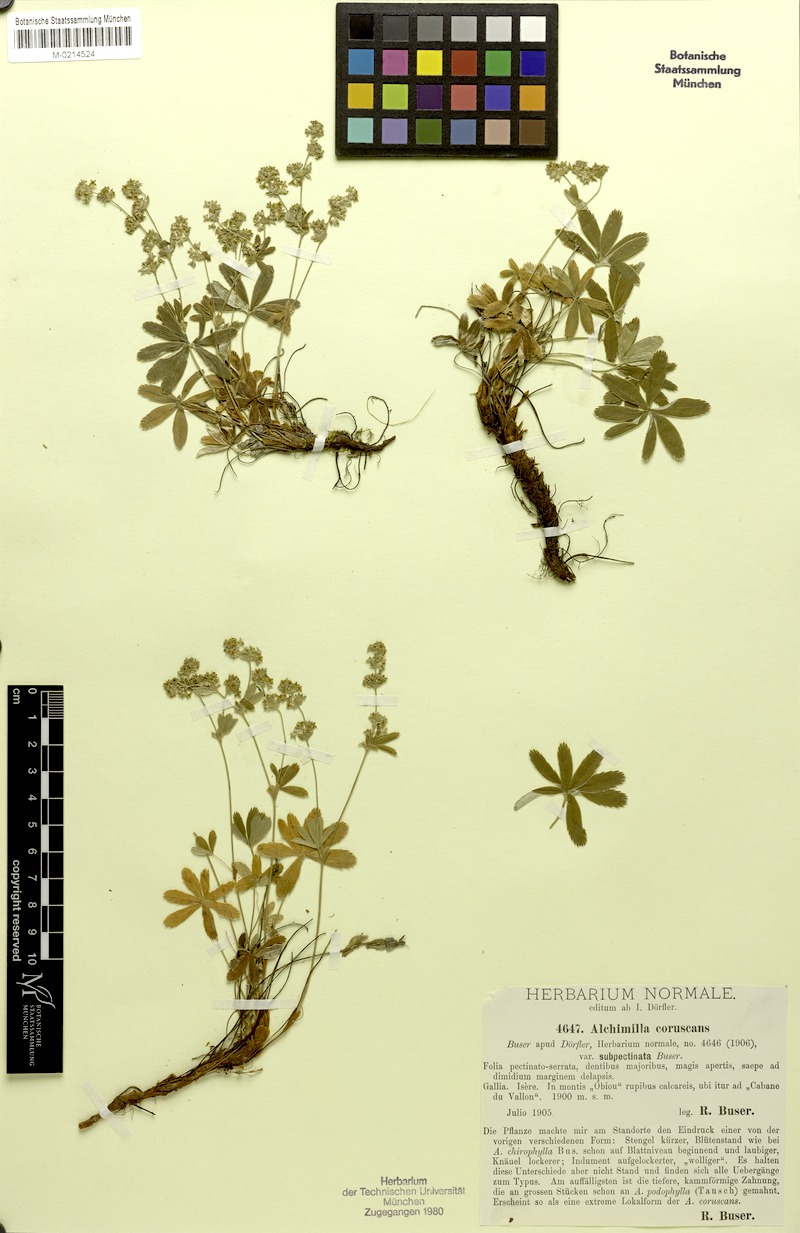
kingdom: Plantae
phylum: Tracheophyta
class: Magnoliopsida
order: Rosales
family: Rosaceae
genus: Alchemilla
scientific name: Alchemilla coruscans
